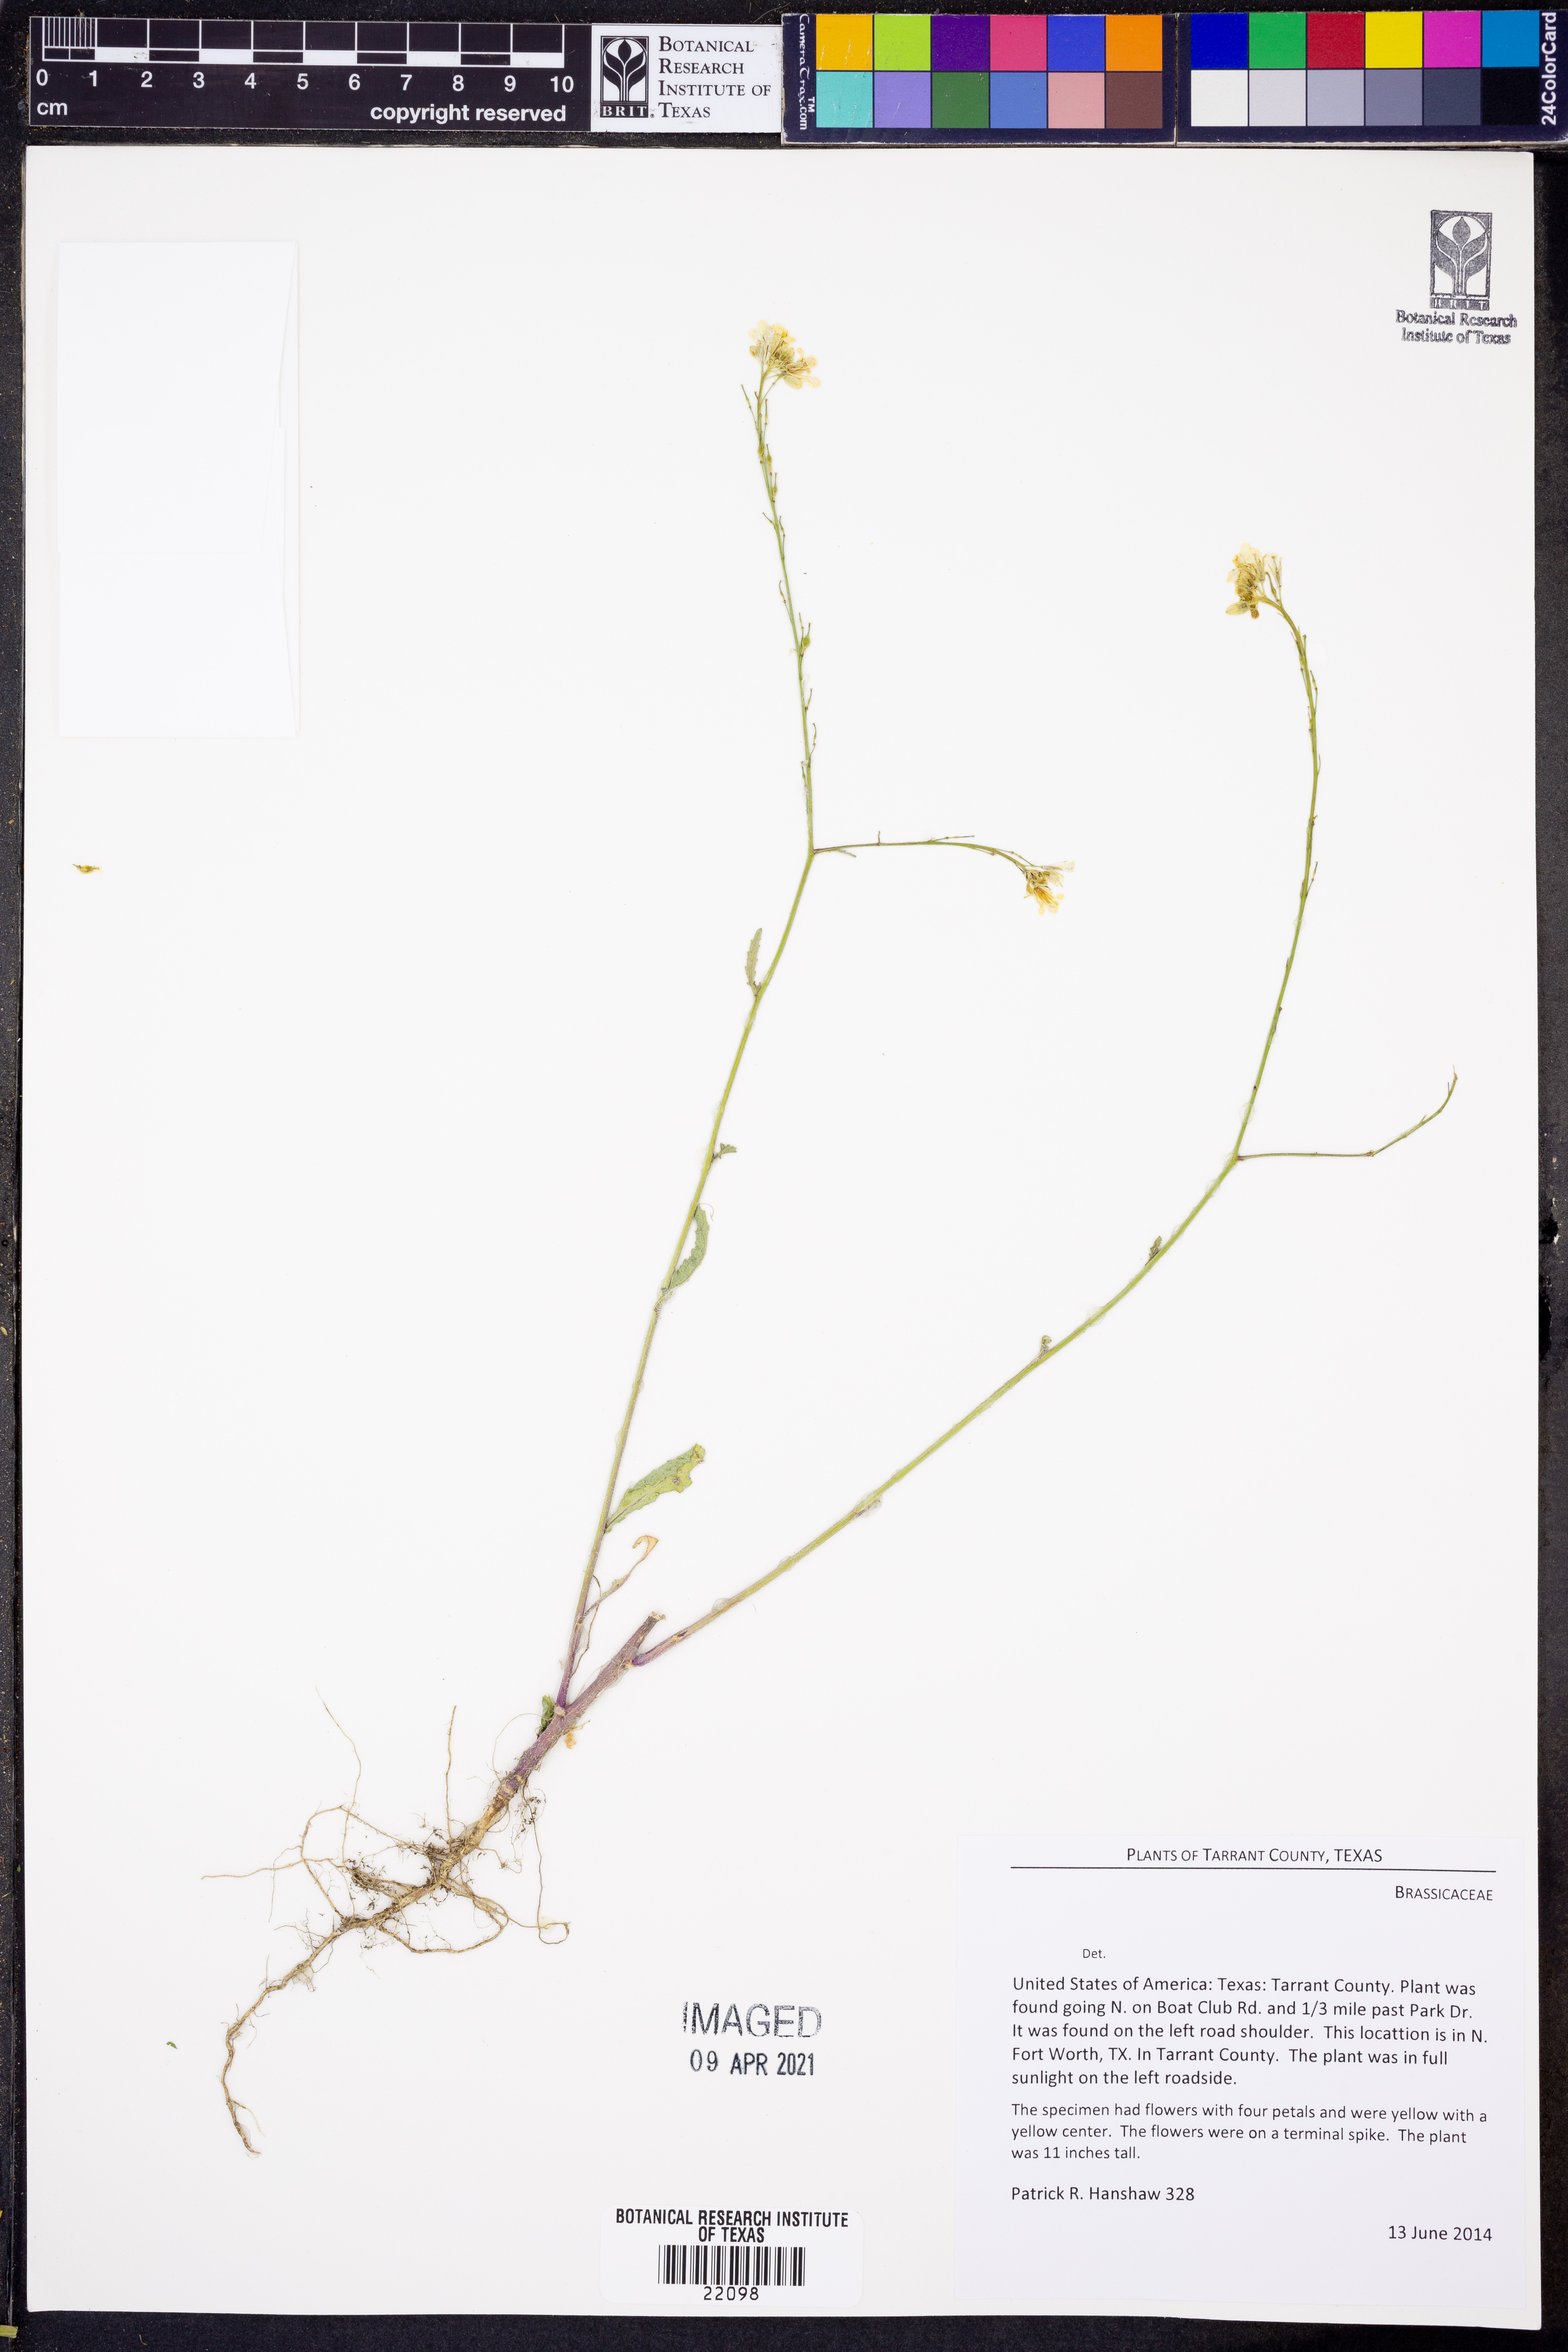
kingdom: Plantae
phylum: Tracheophyta
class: Magnoliopsida
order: Brassicales
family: Brassicaceae
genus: Raphanus
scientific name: Raphanus
